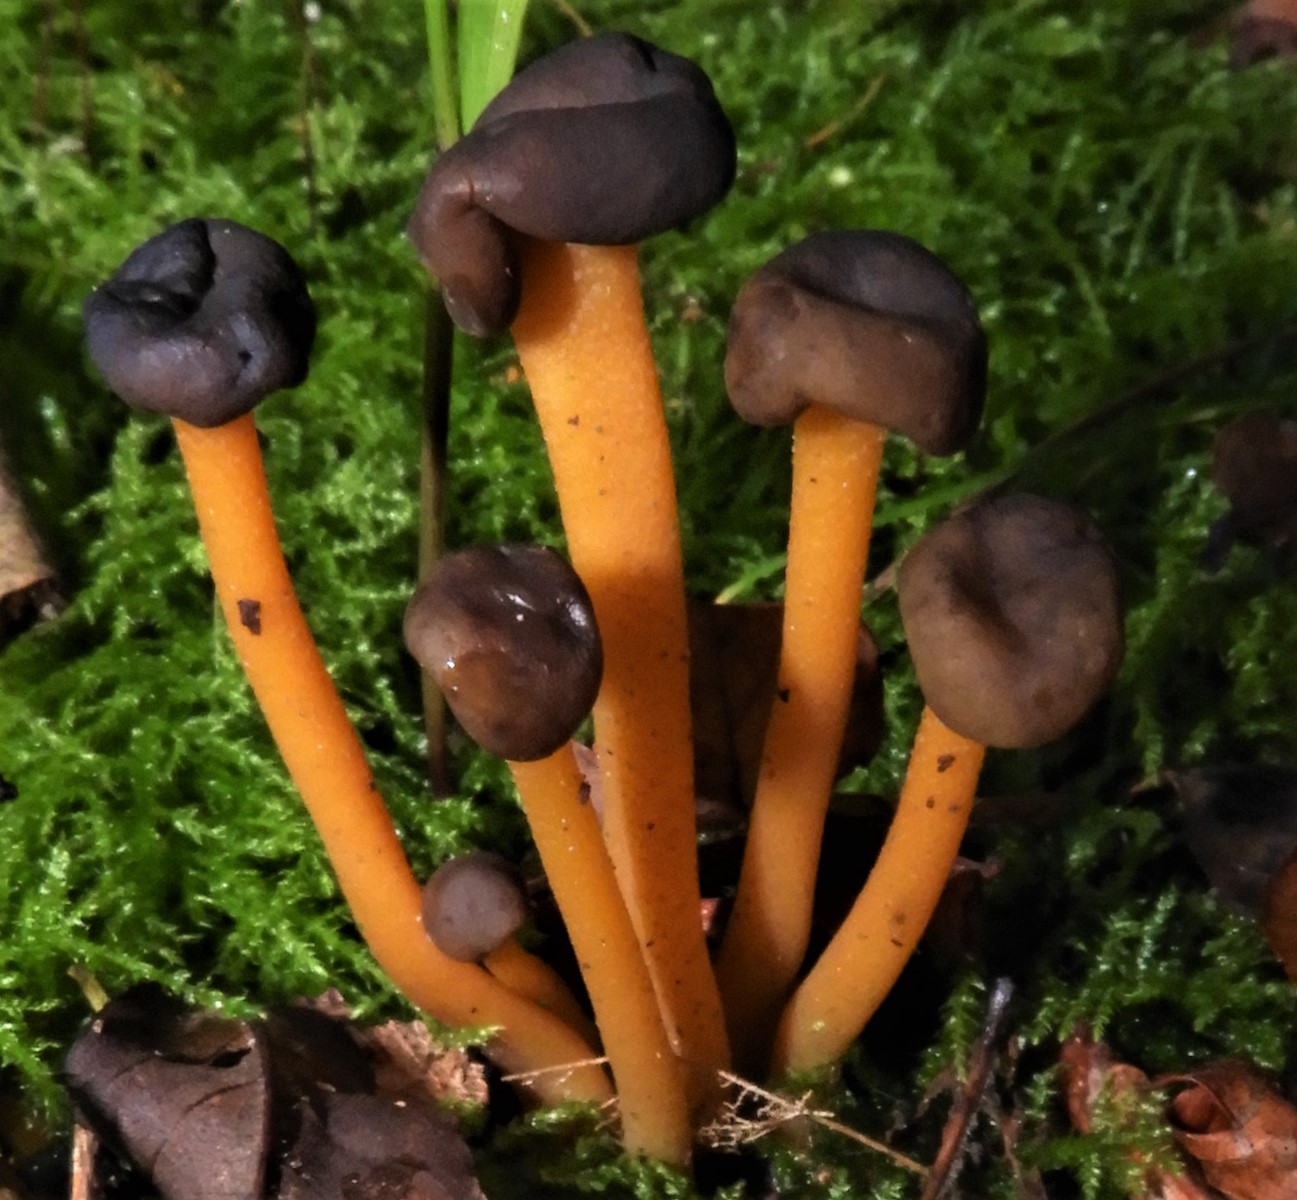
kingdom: Fungi
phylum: Ascomycota
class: Leotiomycetes
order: Leotiales
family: Leotiaceae
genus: Leotia
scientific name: Leotia lubrica
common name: ravsvamp
